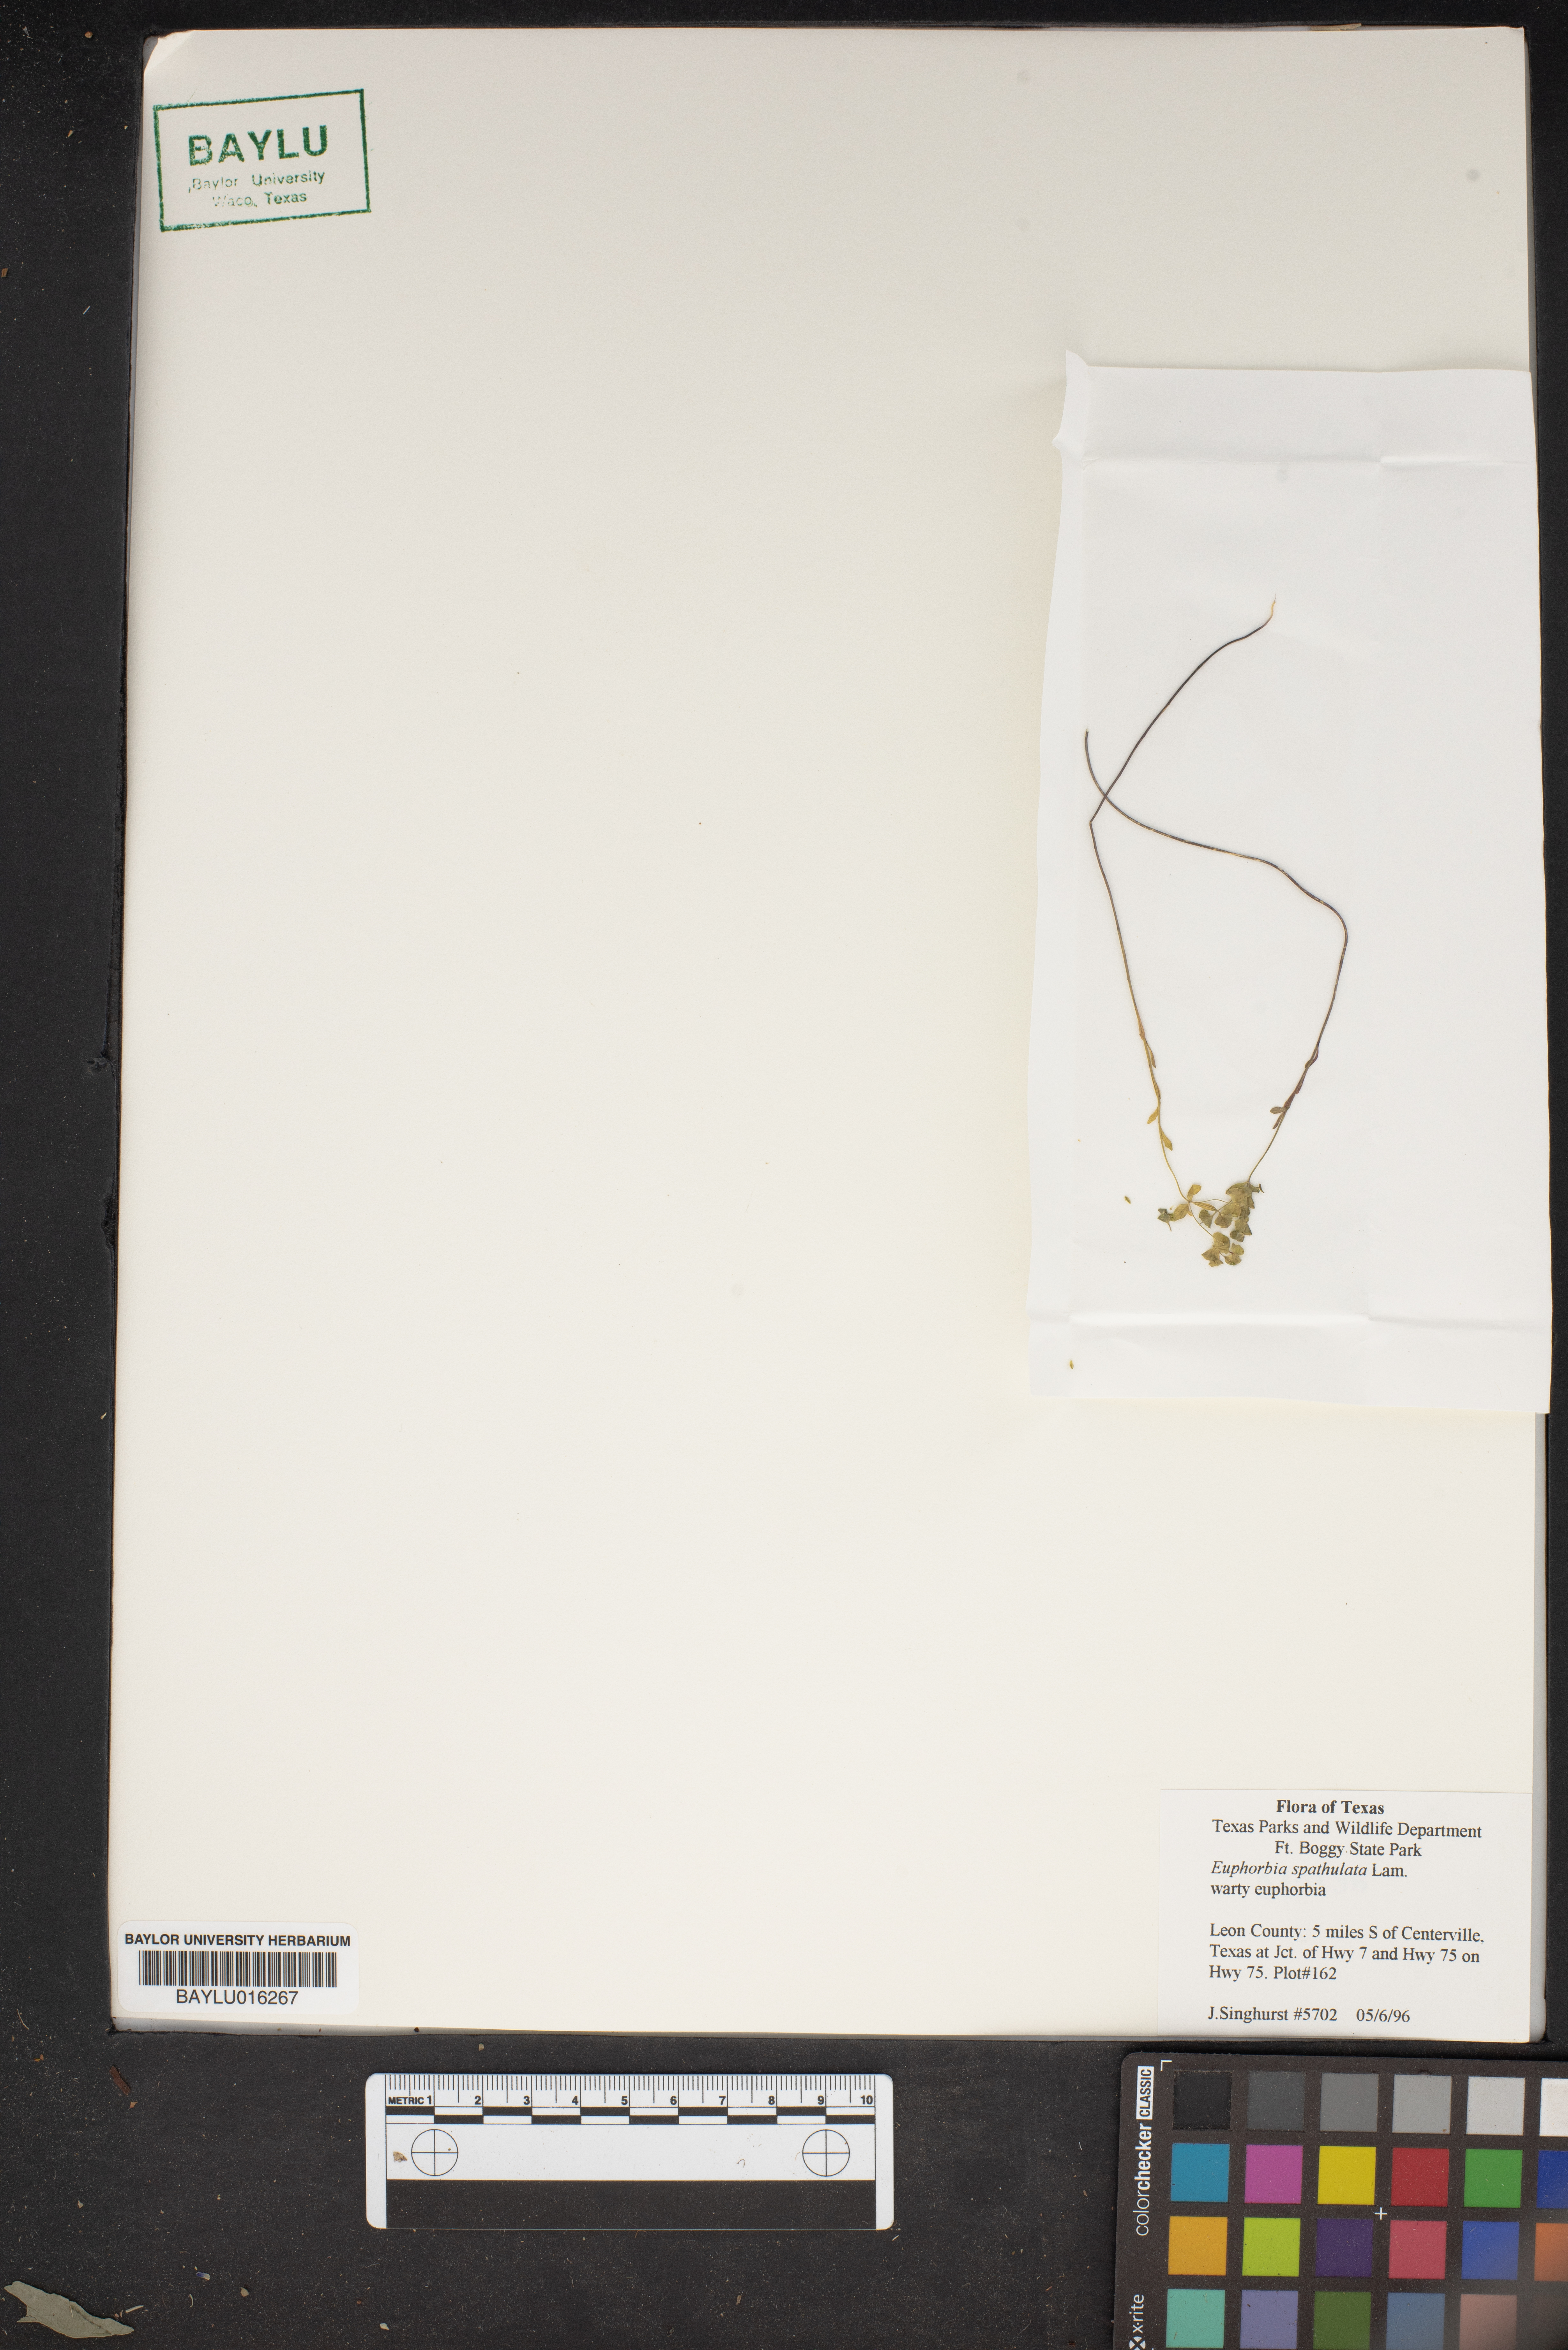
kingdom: Plantae
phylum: Tracheophyta
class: Magnoliopsida
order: Malpighiales
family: Euphorbiaceae
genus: Euphorbia
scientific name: Euphorbia spathulata
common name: Blunt spurge
